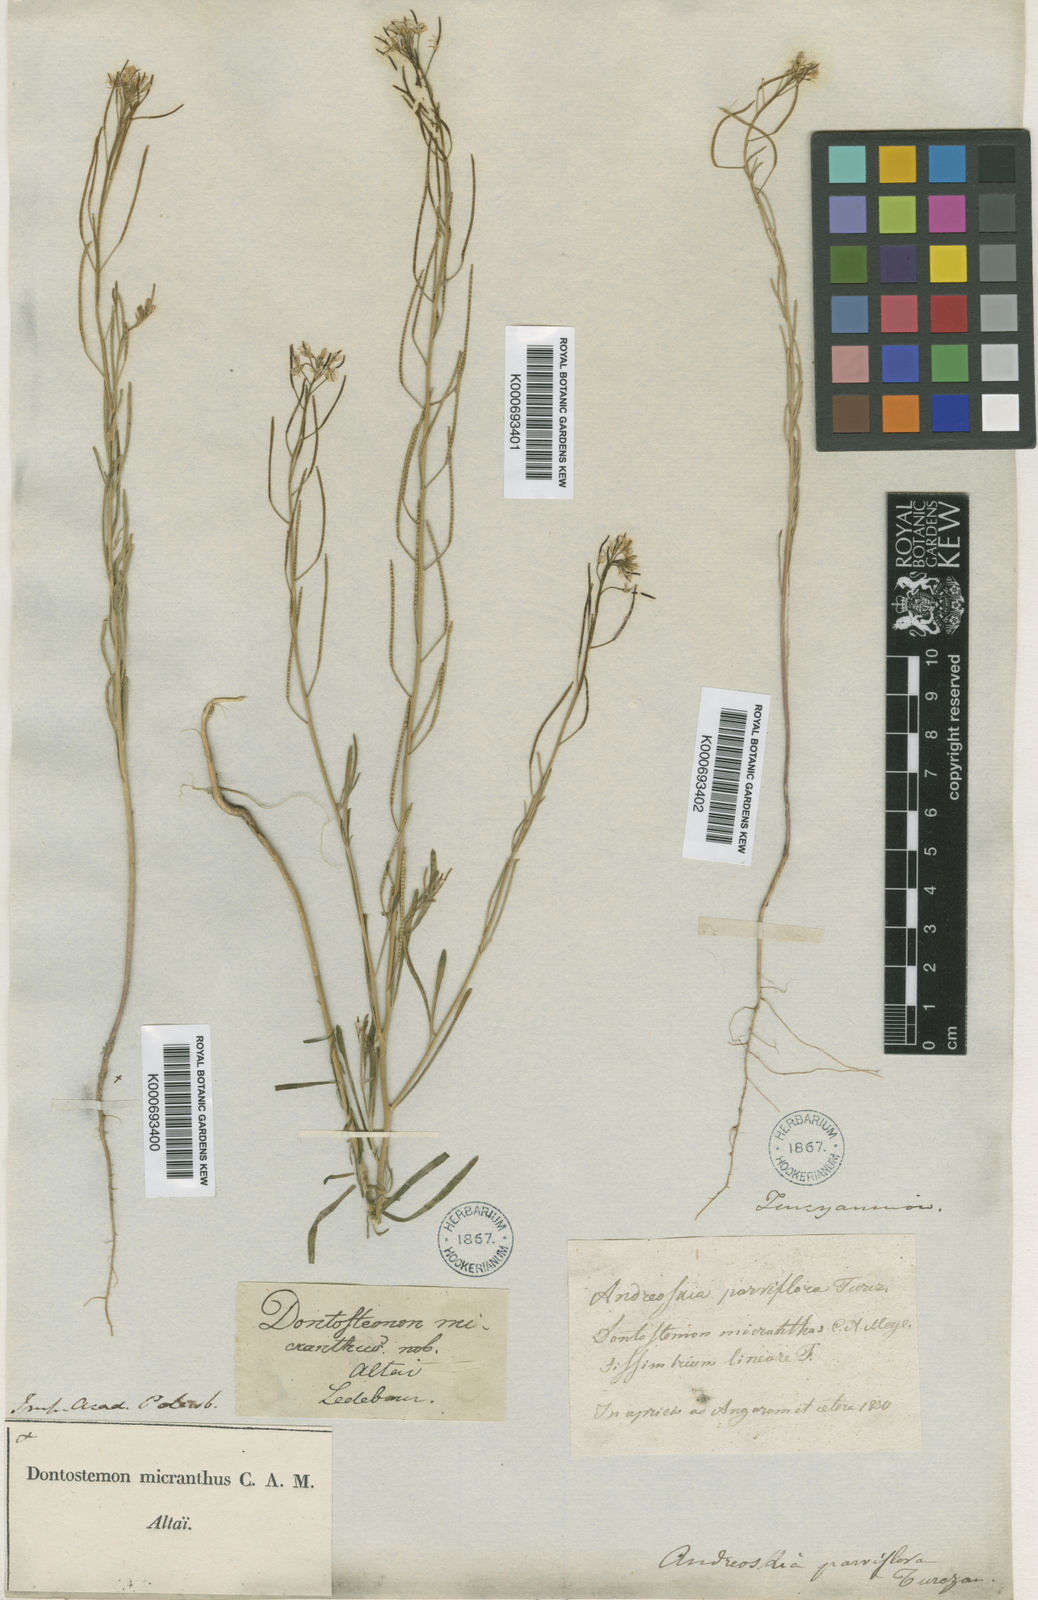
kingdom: Plantae
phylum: Tracheophyta
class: Magnoliopsida
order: Brassicales
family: Brassicaceae
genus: Dontostemon
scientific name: Dontostemon micranthus
